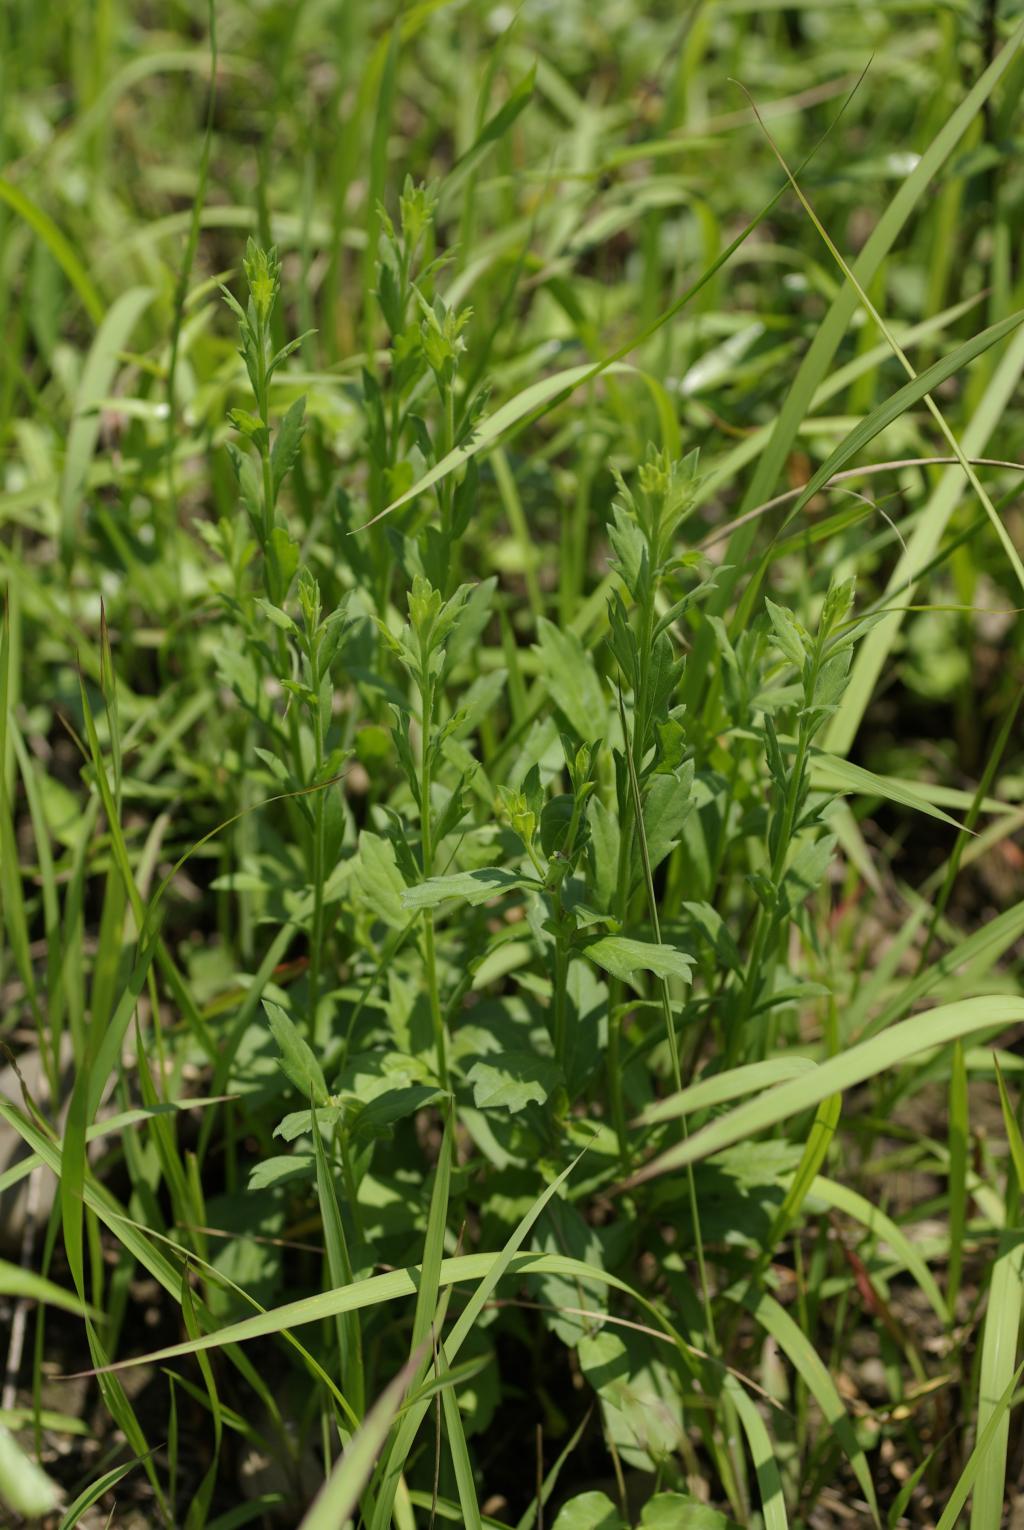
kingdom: Plantae
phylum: Tracheophyta
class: Magnoliopsida
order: Asterales
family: Asteraceae
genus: Aster
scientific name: Aster shimadae
